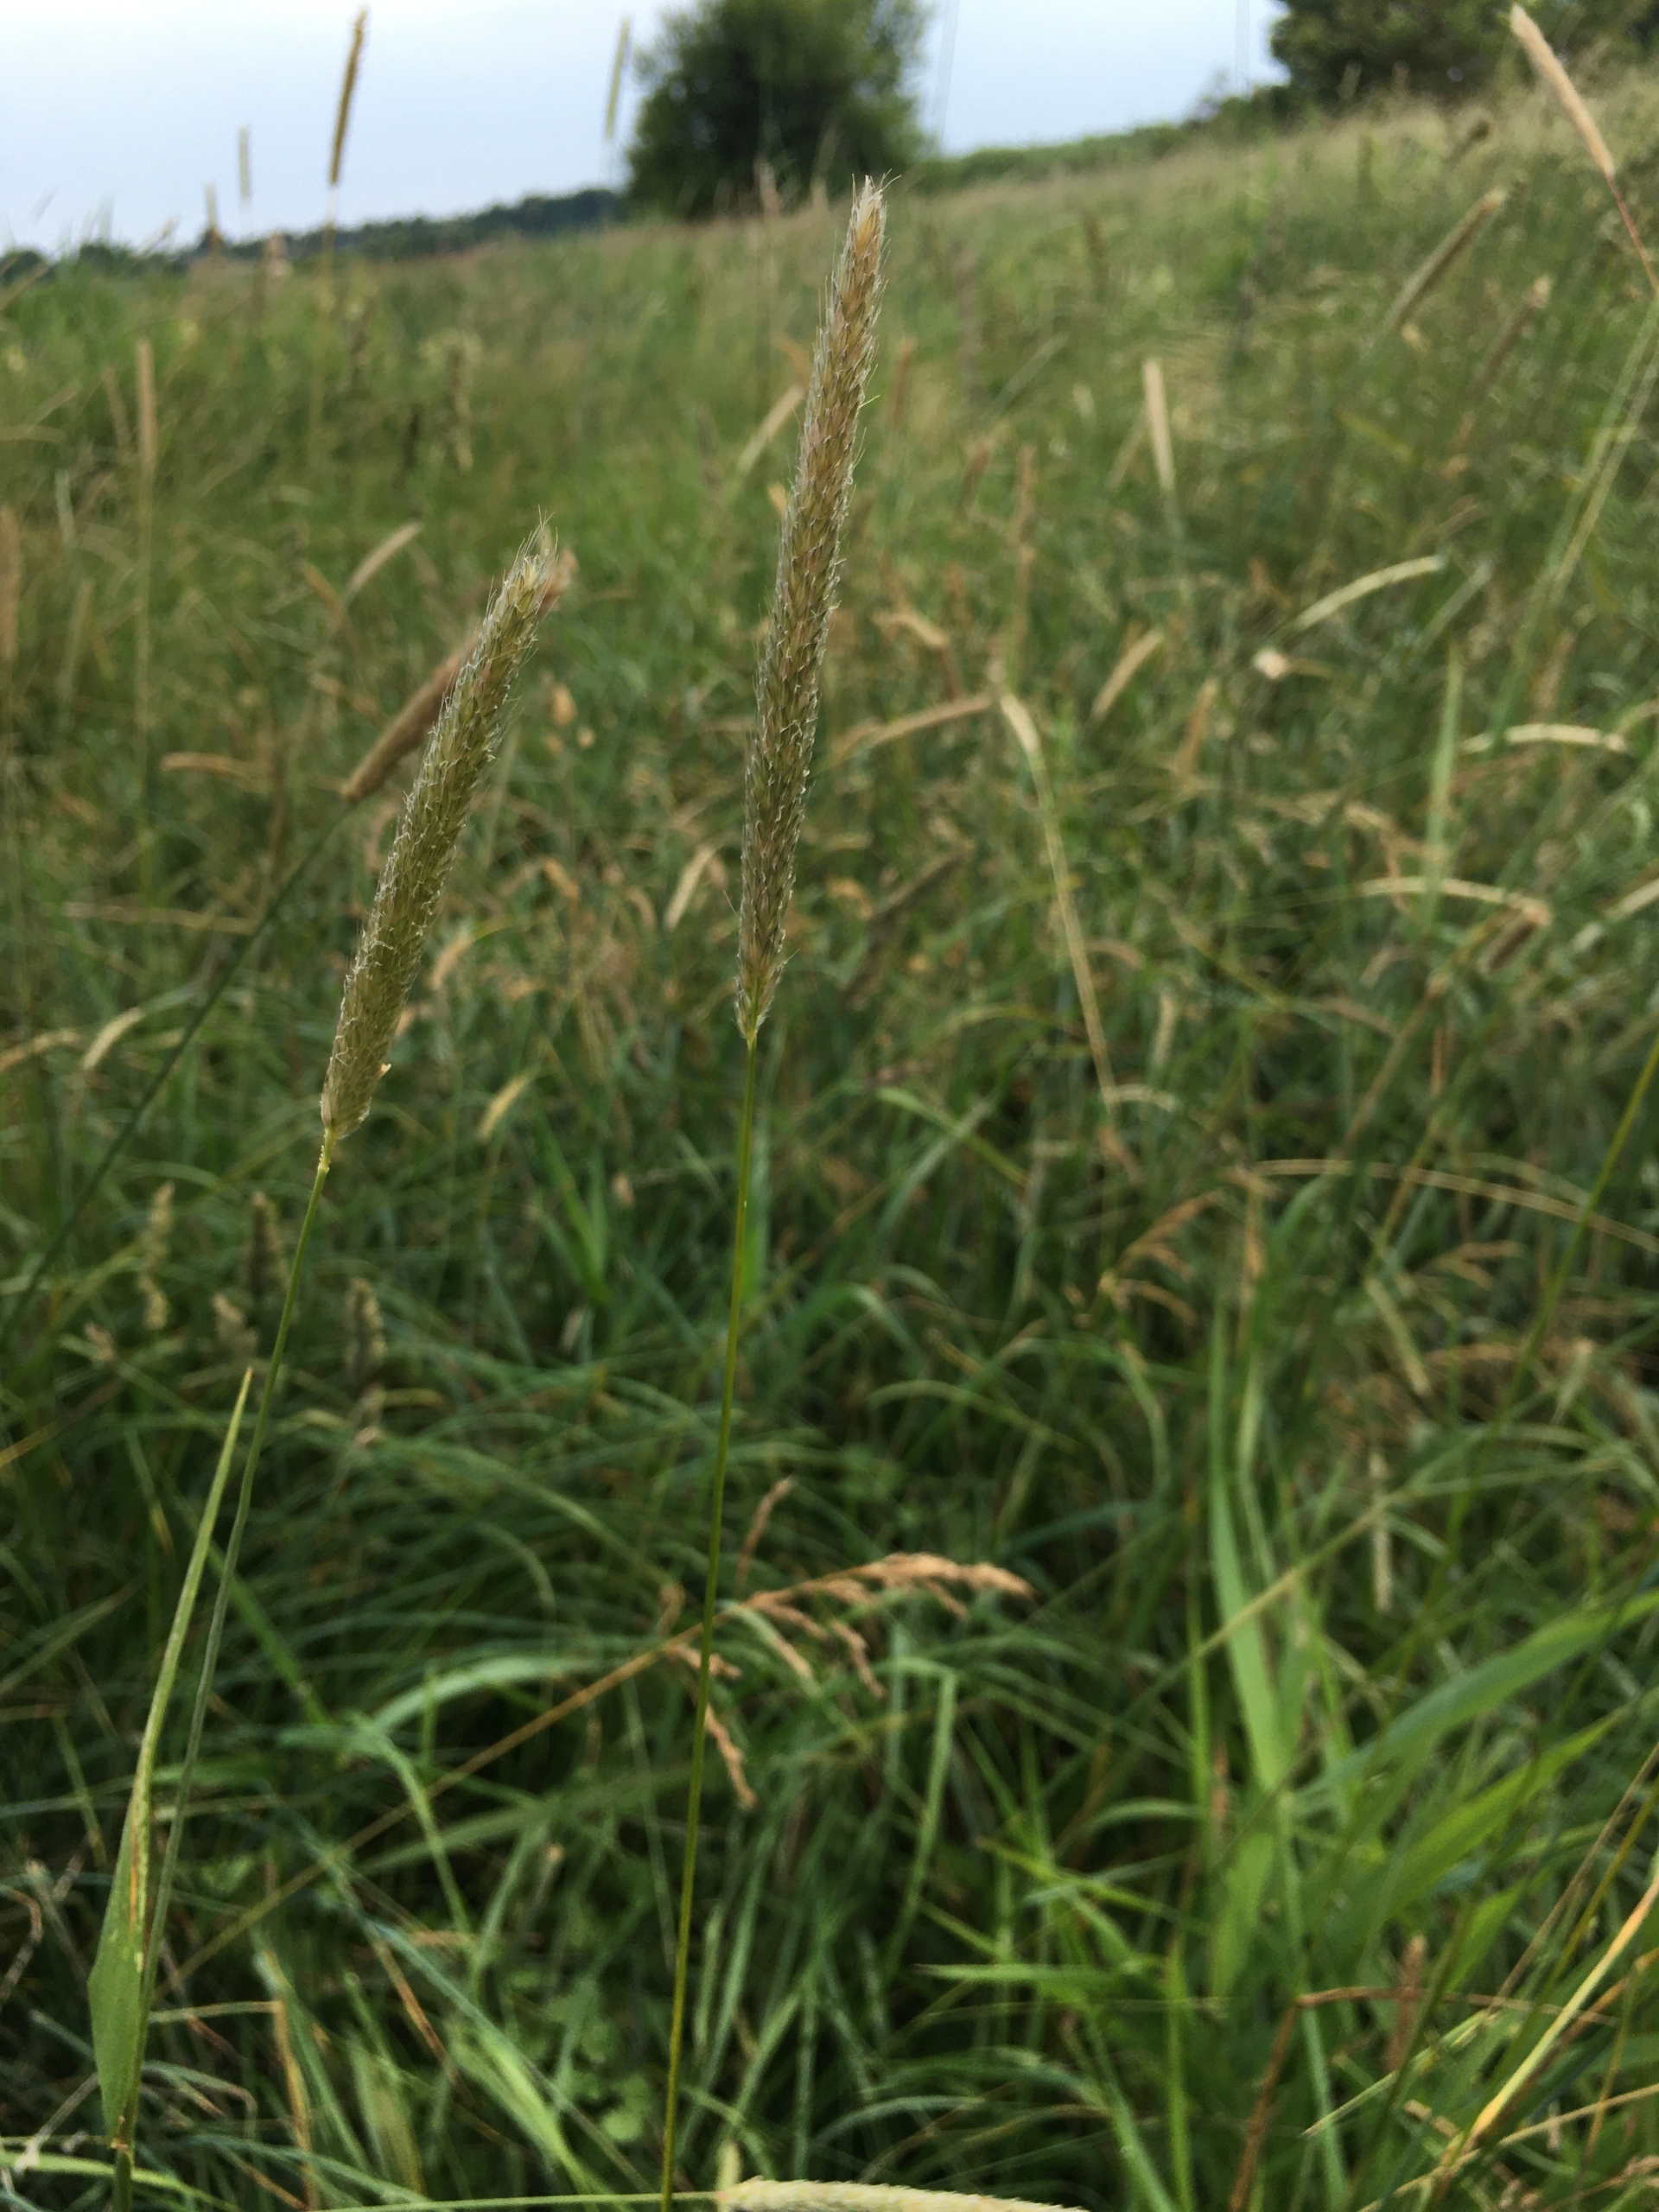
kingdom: Plantae
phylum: Tracheophyta
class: Liliopsida
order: Poales
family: Poaceae
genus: Alopecurus
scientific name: Alopecurus pratensis
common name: Eng-rævehale
